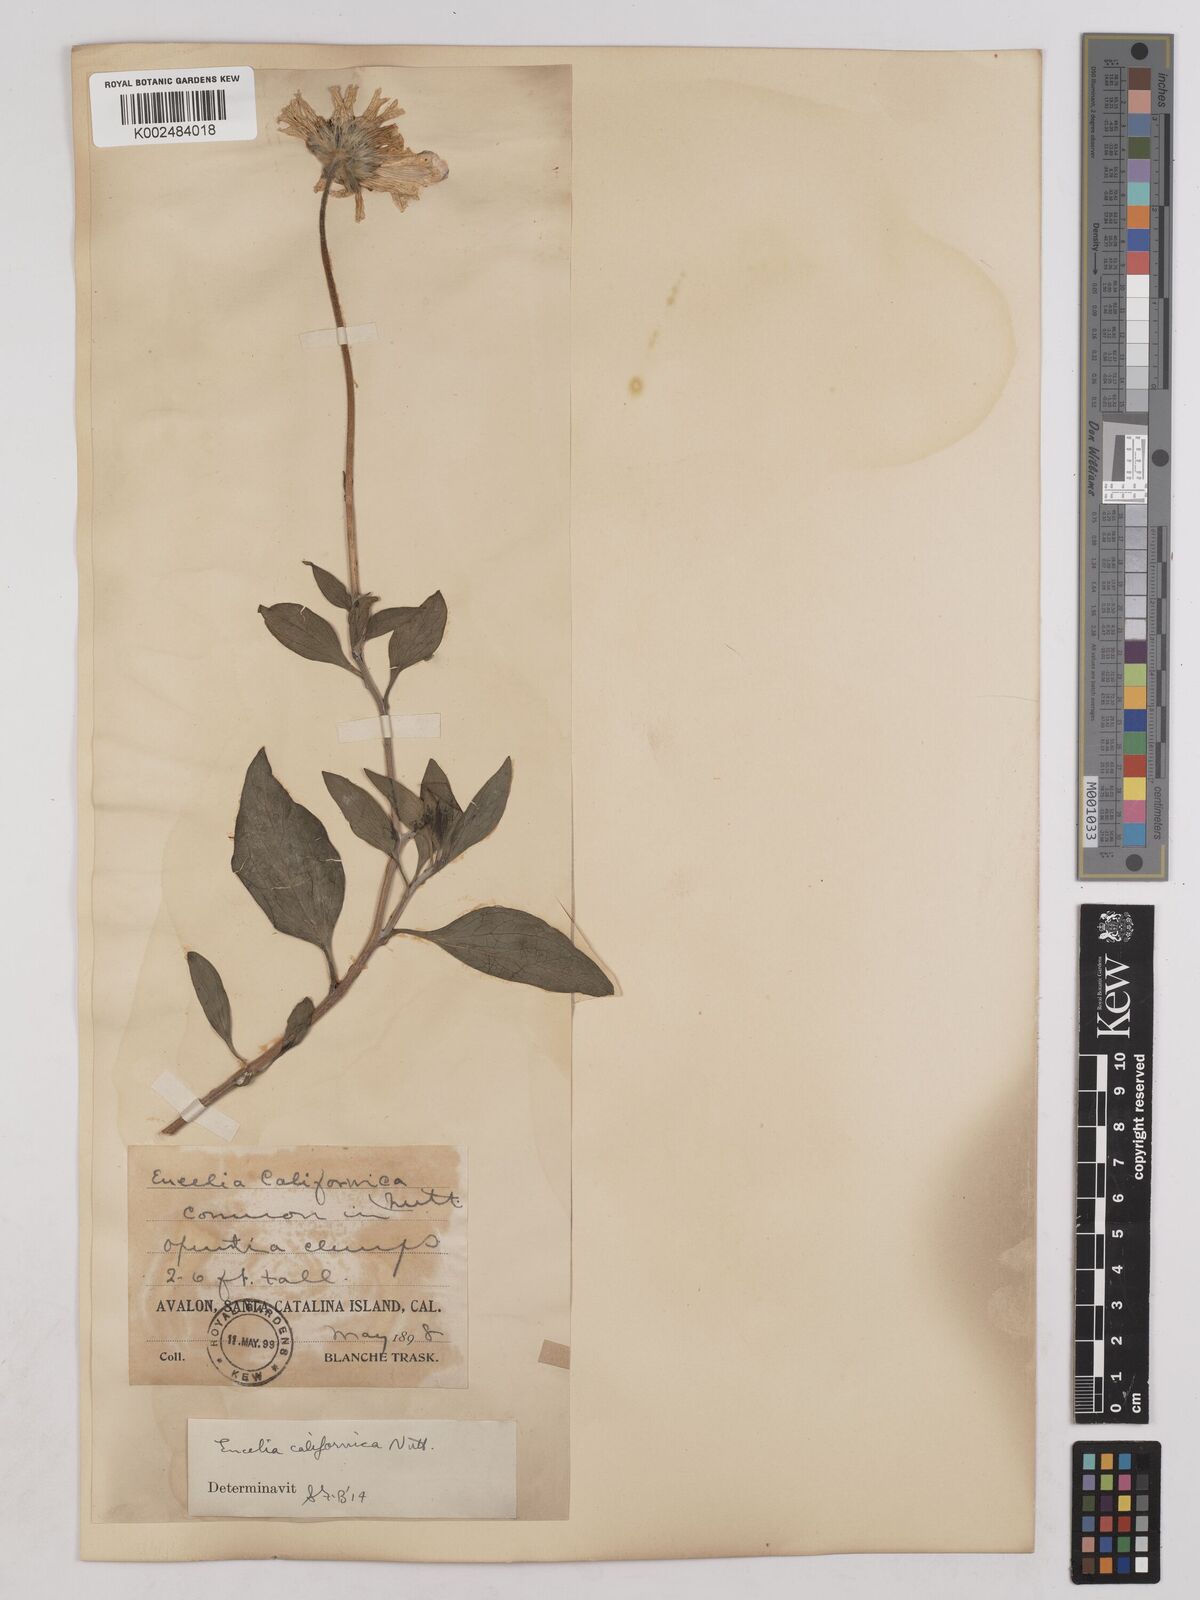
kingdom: Plantae
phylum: Tracheophyta
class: Magnoliopsida
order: Asterales
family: Asteraceae
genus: Encelia
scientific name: Encelia californica
